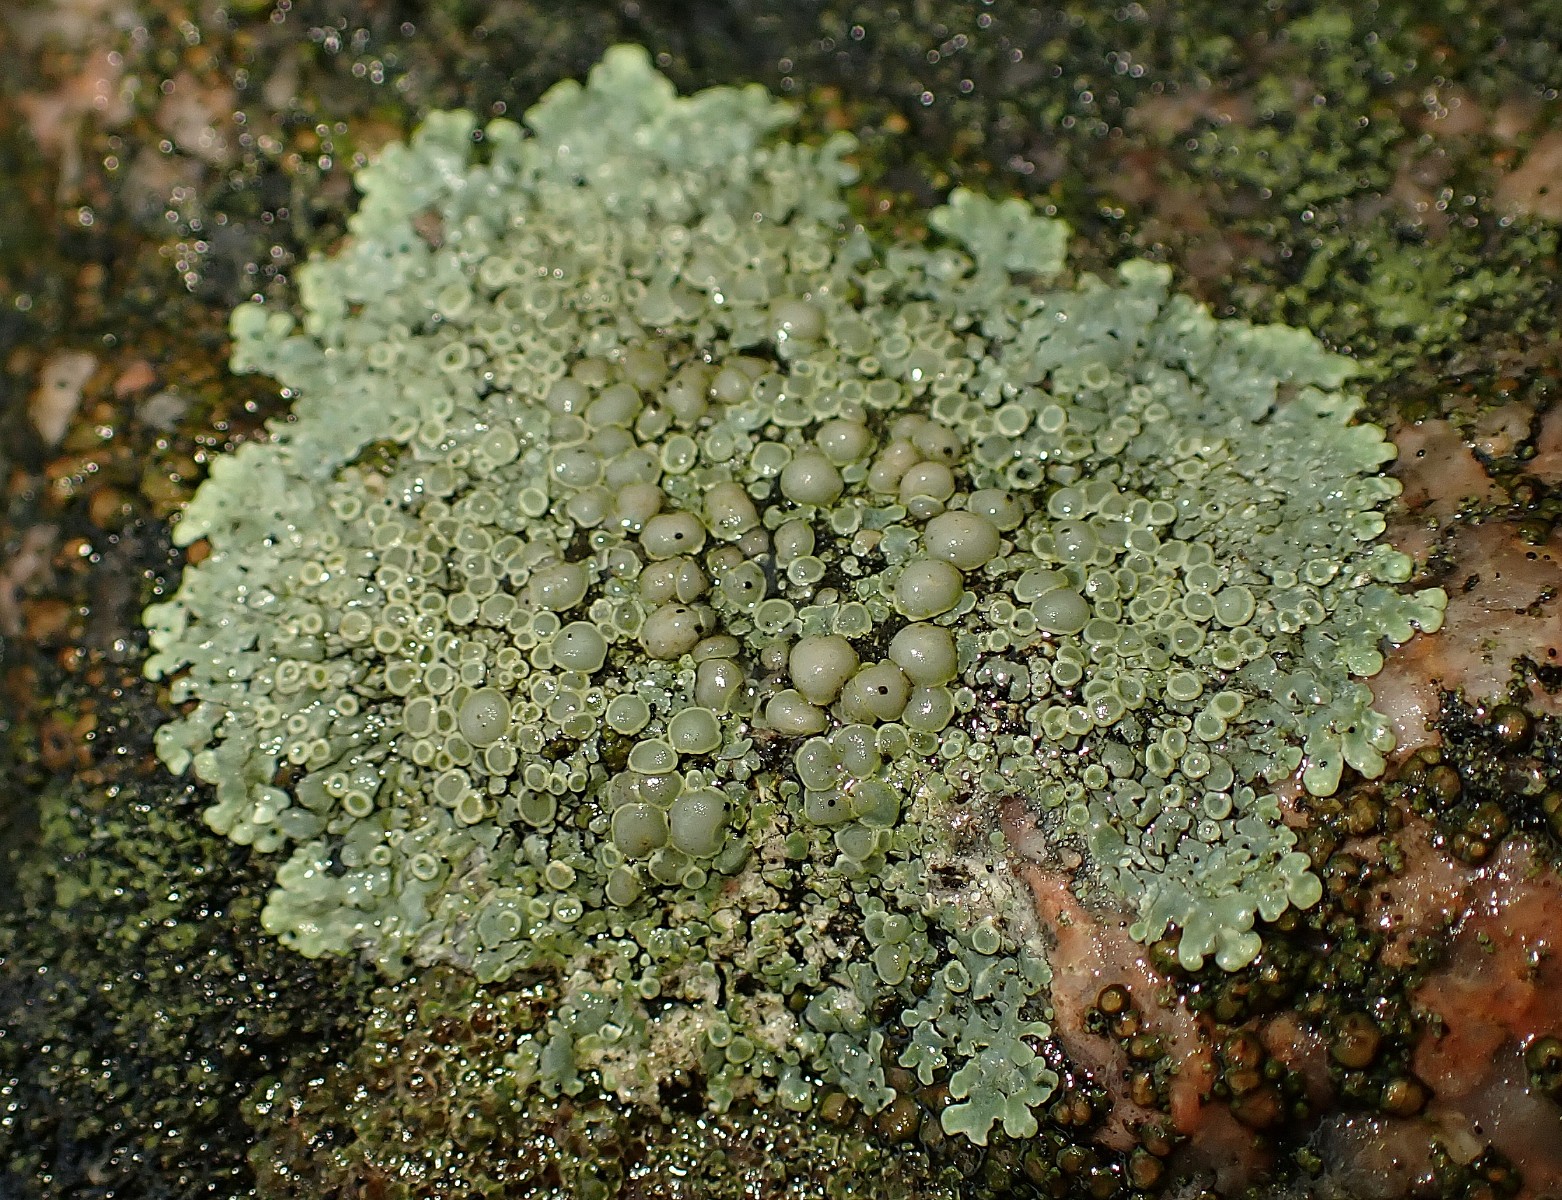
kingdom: Fungi
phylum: Ascomycota
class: Lecanoromycetes
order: Lecanorales
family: Lecanoraceae
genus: Protoparmeliopsis
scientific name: Protoparmeliopsis muralis
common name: randfliget kantskivelav
